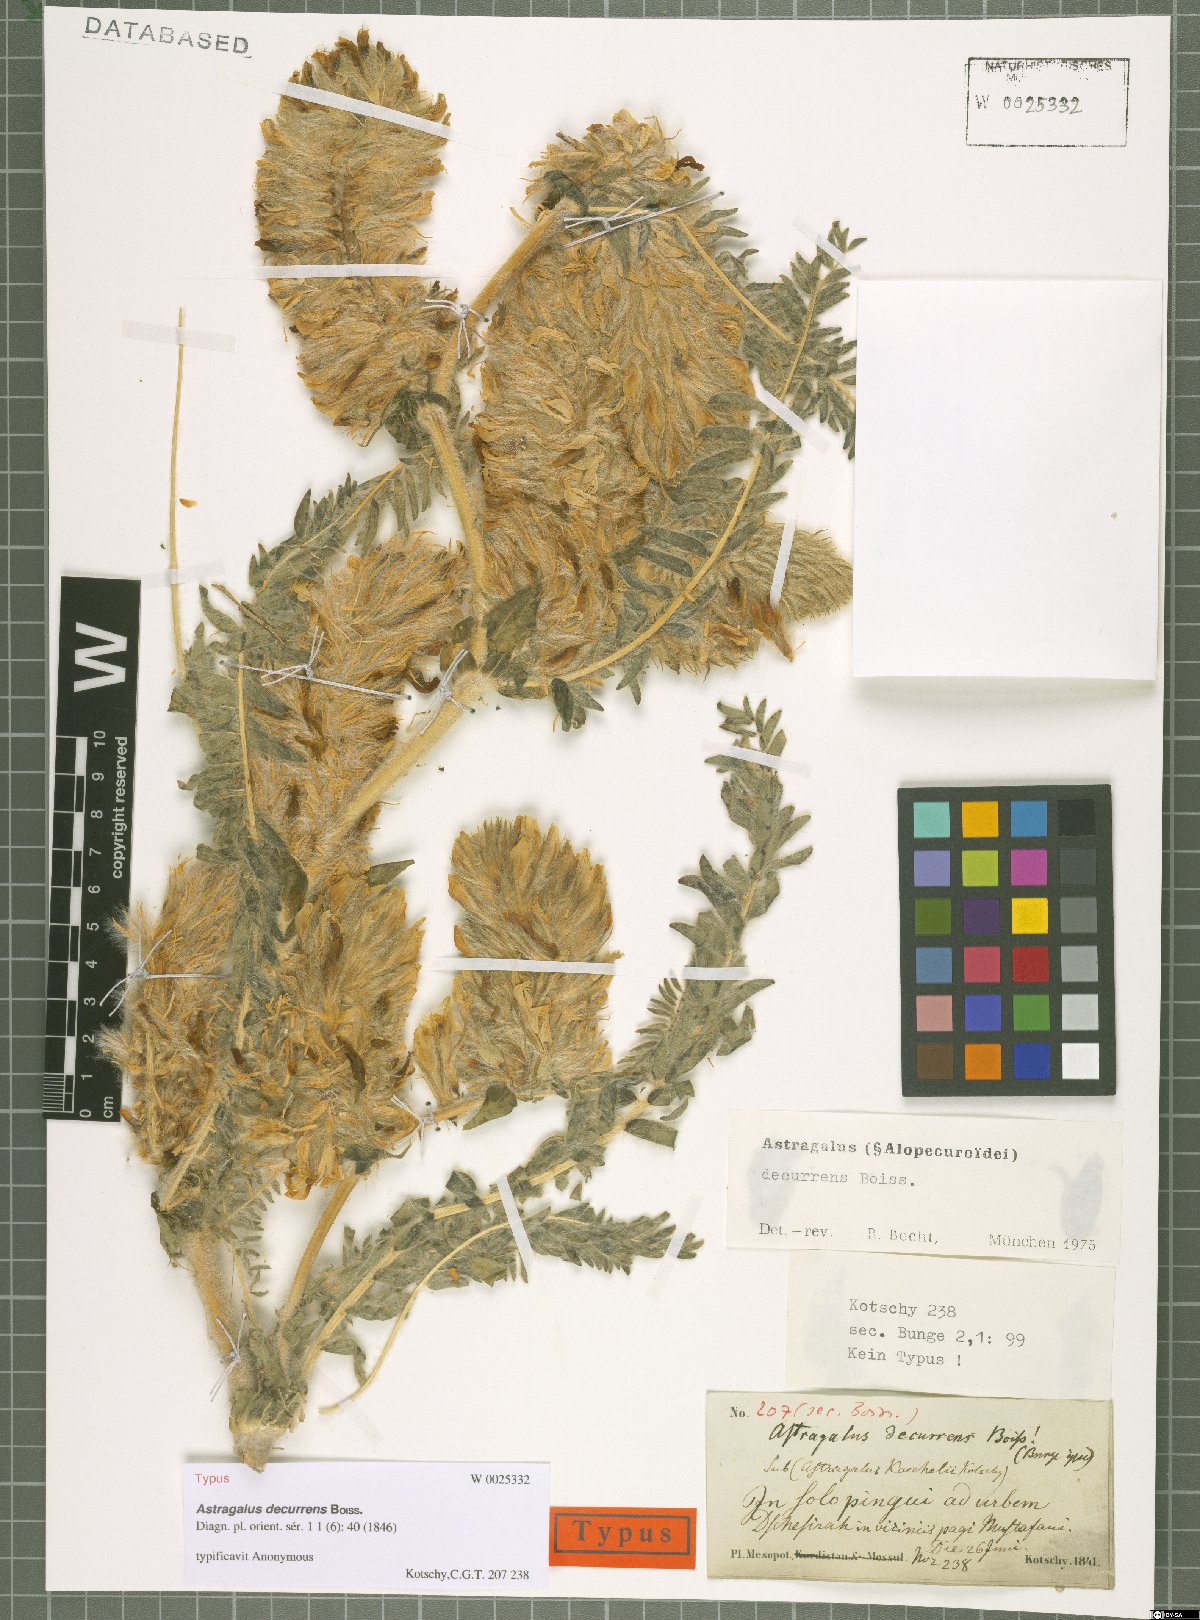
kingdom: Plantae
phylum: Tracheophyta
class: Magnoliopsida
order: Fabales
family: Fabaceae
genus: Astragalus
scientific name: Astragalus decurrens
